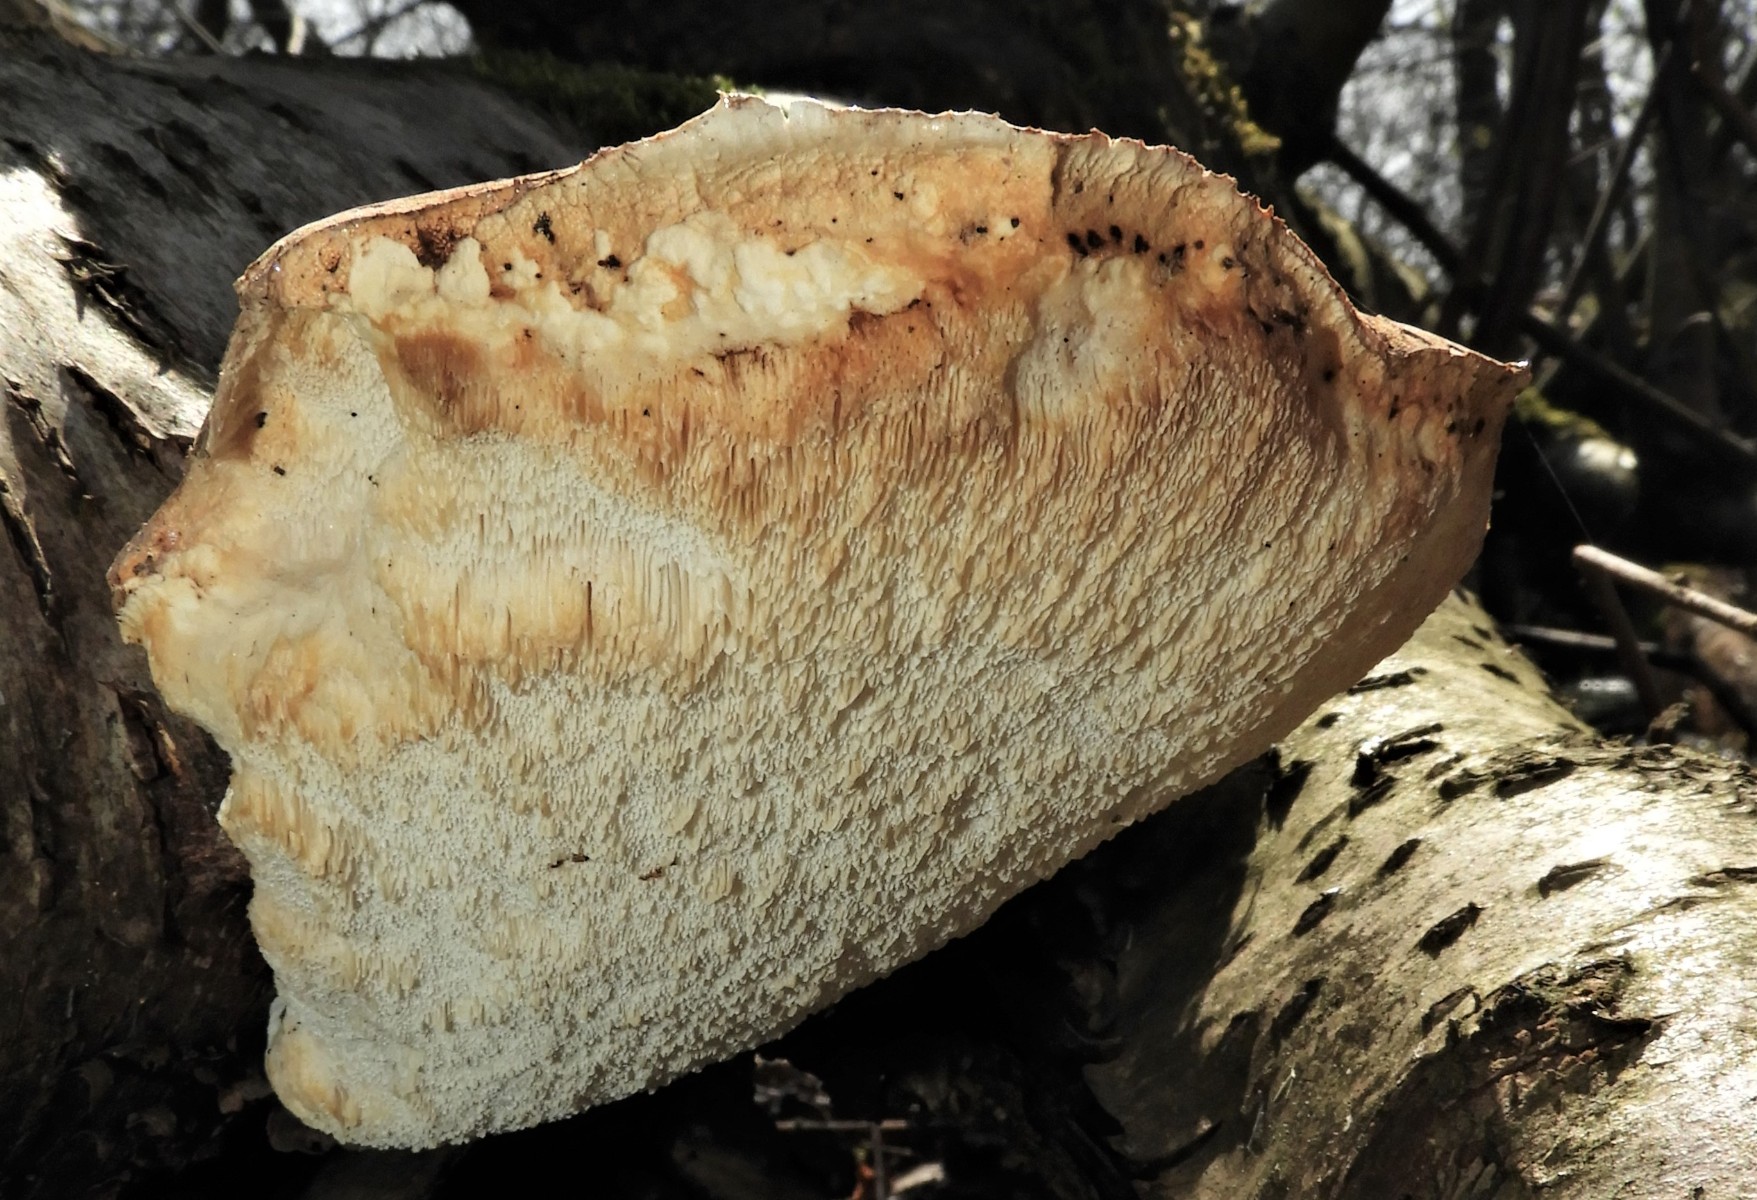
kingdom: Fungi
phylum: Basidiomycota
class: Agaricomycetes
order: Polyporales
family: Fomitopsidaceae
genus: Fomitopsis
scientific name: Fomitopsis betulina
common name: birkeporesvamp
